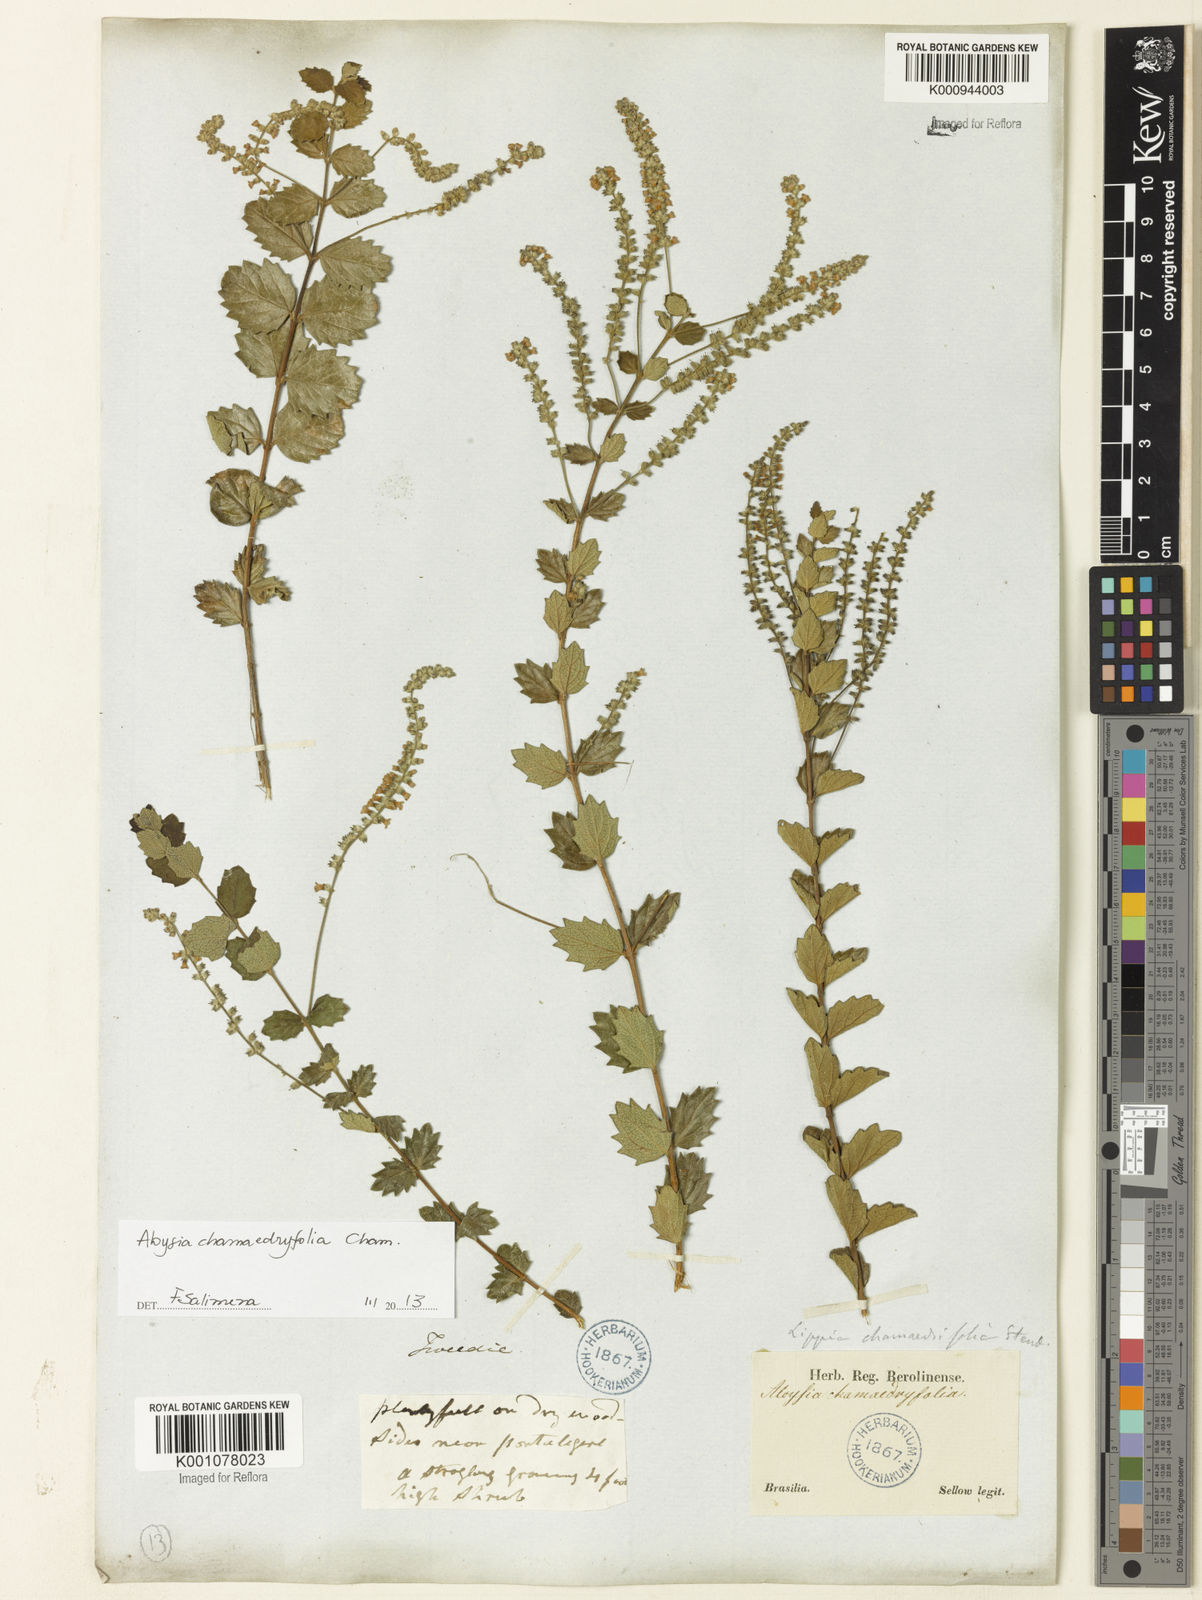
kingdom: Plantae
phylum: Tracheophyta
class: Magnoliopsida
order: Lamiales
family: Verbenaceae
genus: Aloysia
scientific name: Aloysia chamaedryfolia
